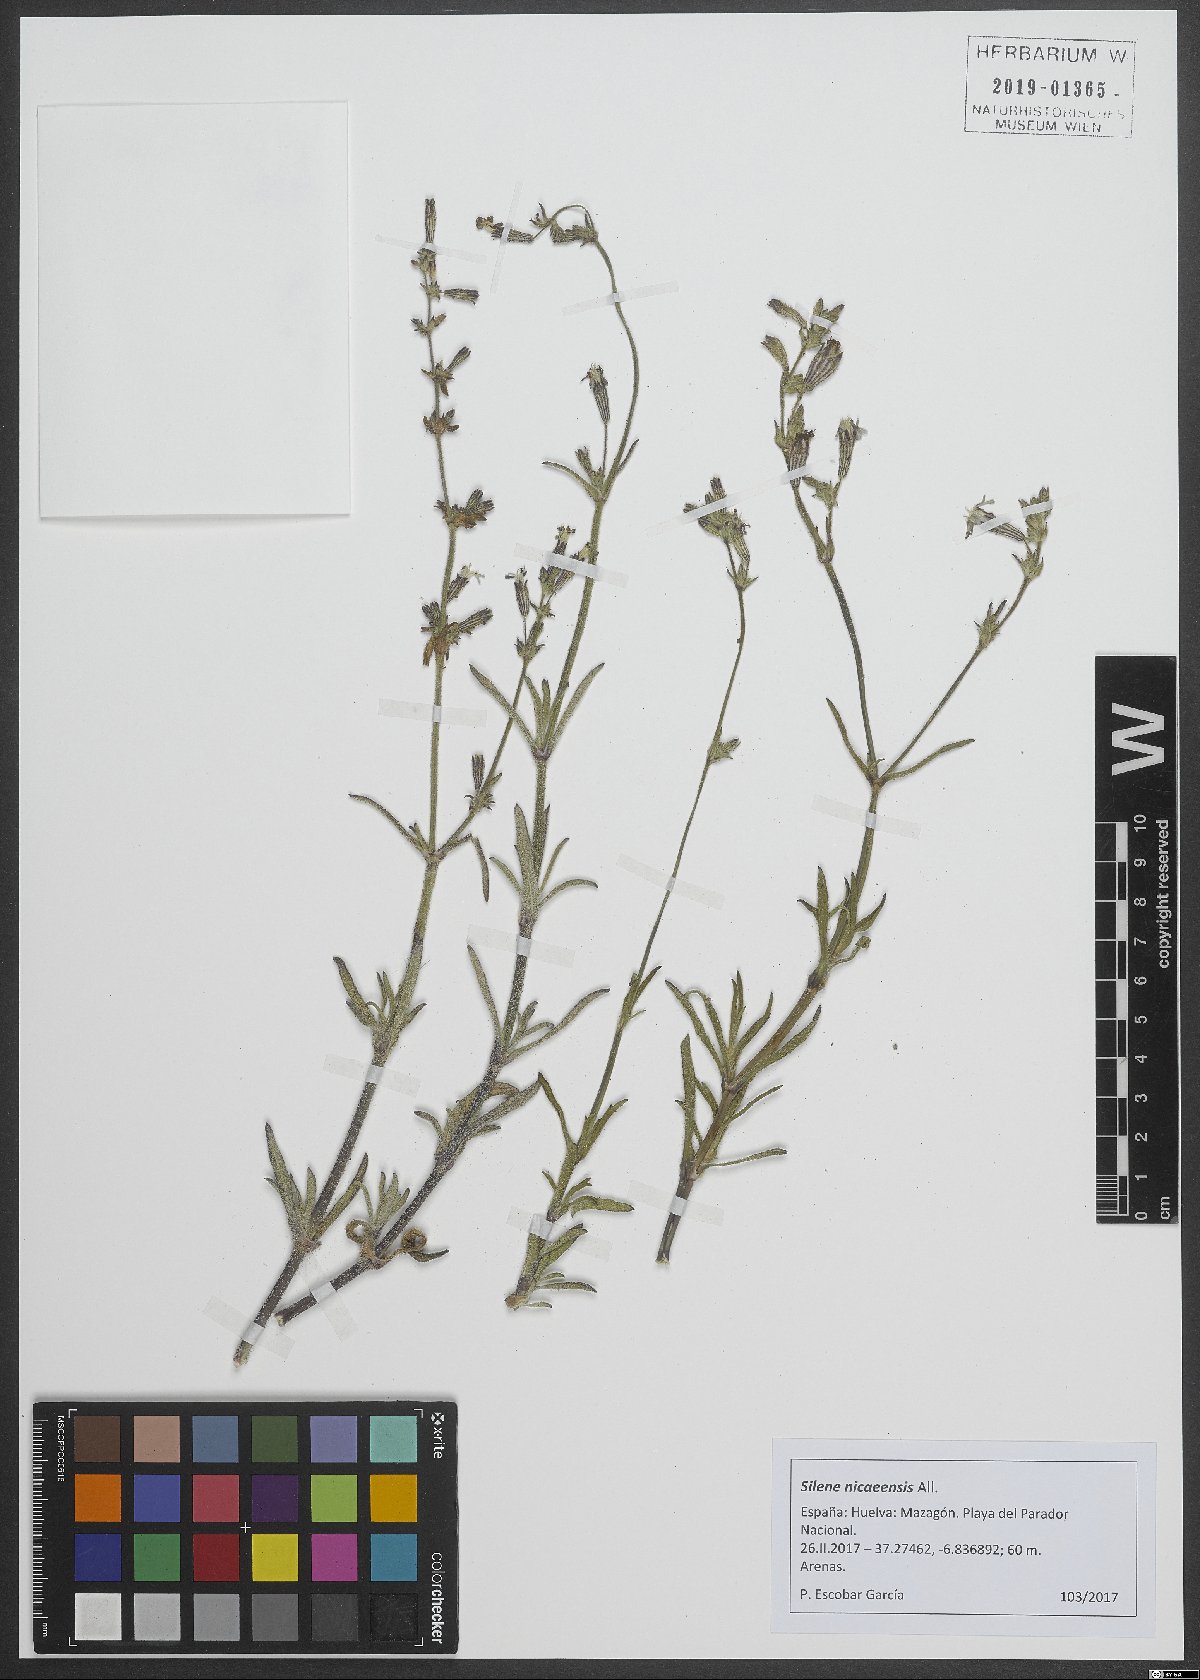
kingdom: Plantae
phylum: Tracheophyta
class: Magnoliopsida
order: Caryophyllales
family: Caryophyllaceae
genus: Silene
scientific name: Silene nicaeensis
